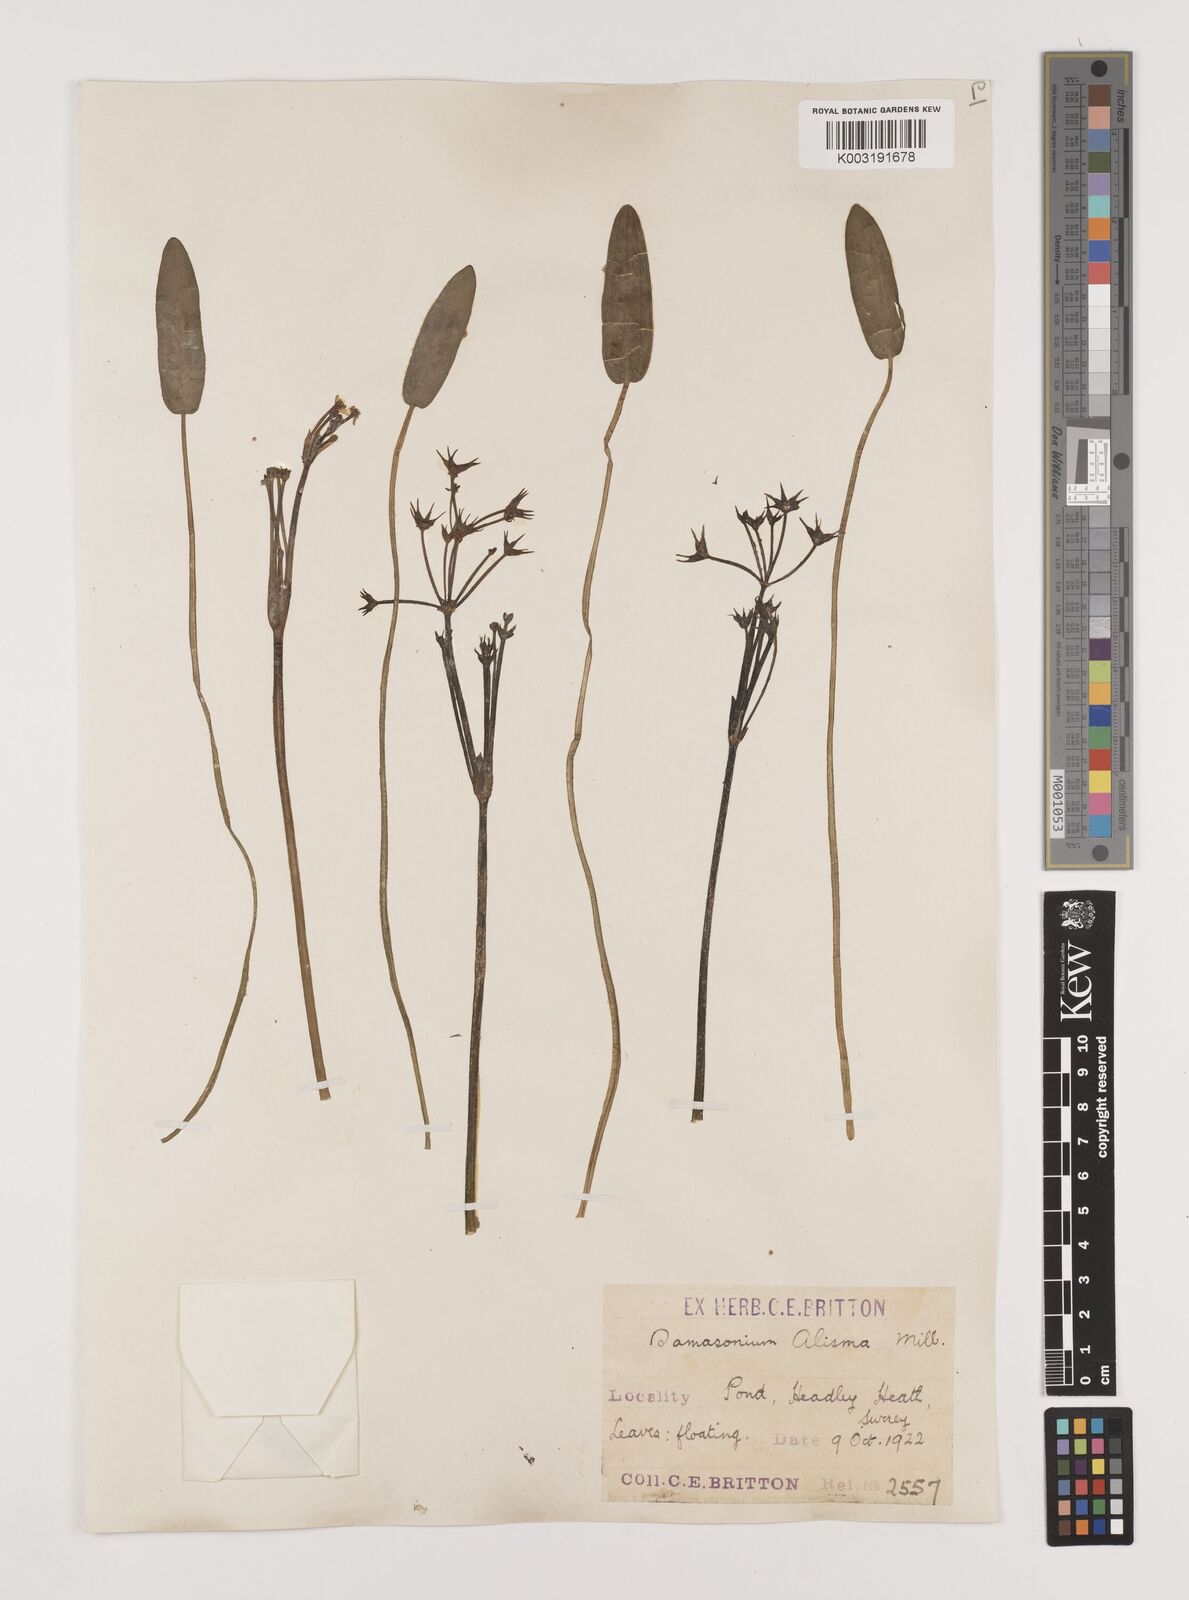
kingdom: Plantae
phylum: Tracheophyta
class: Liliopsida
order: Alismatales
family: Alismataceae
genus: Damasonium
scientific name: Damasonium alisma
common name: Starfruit
